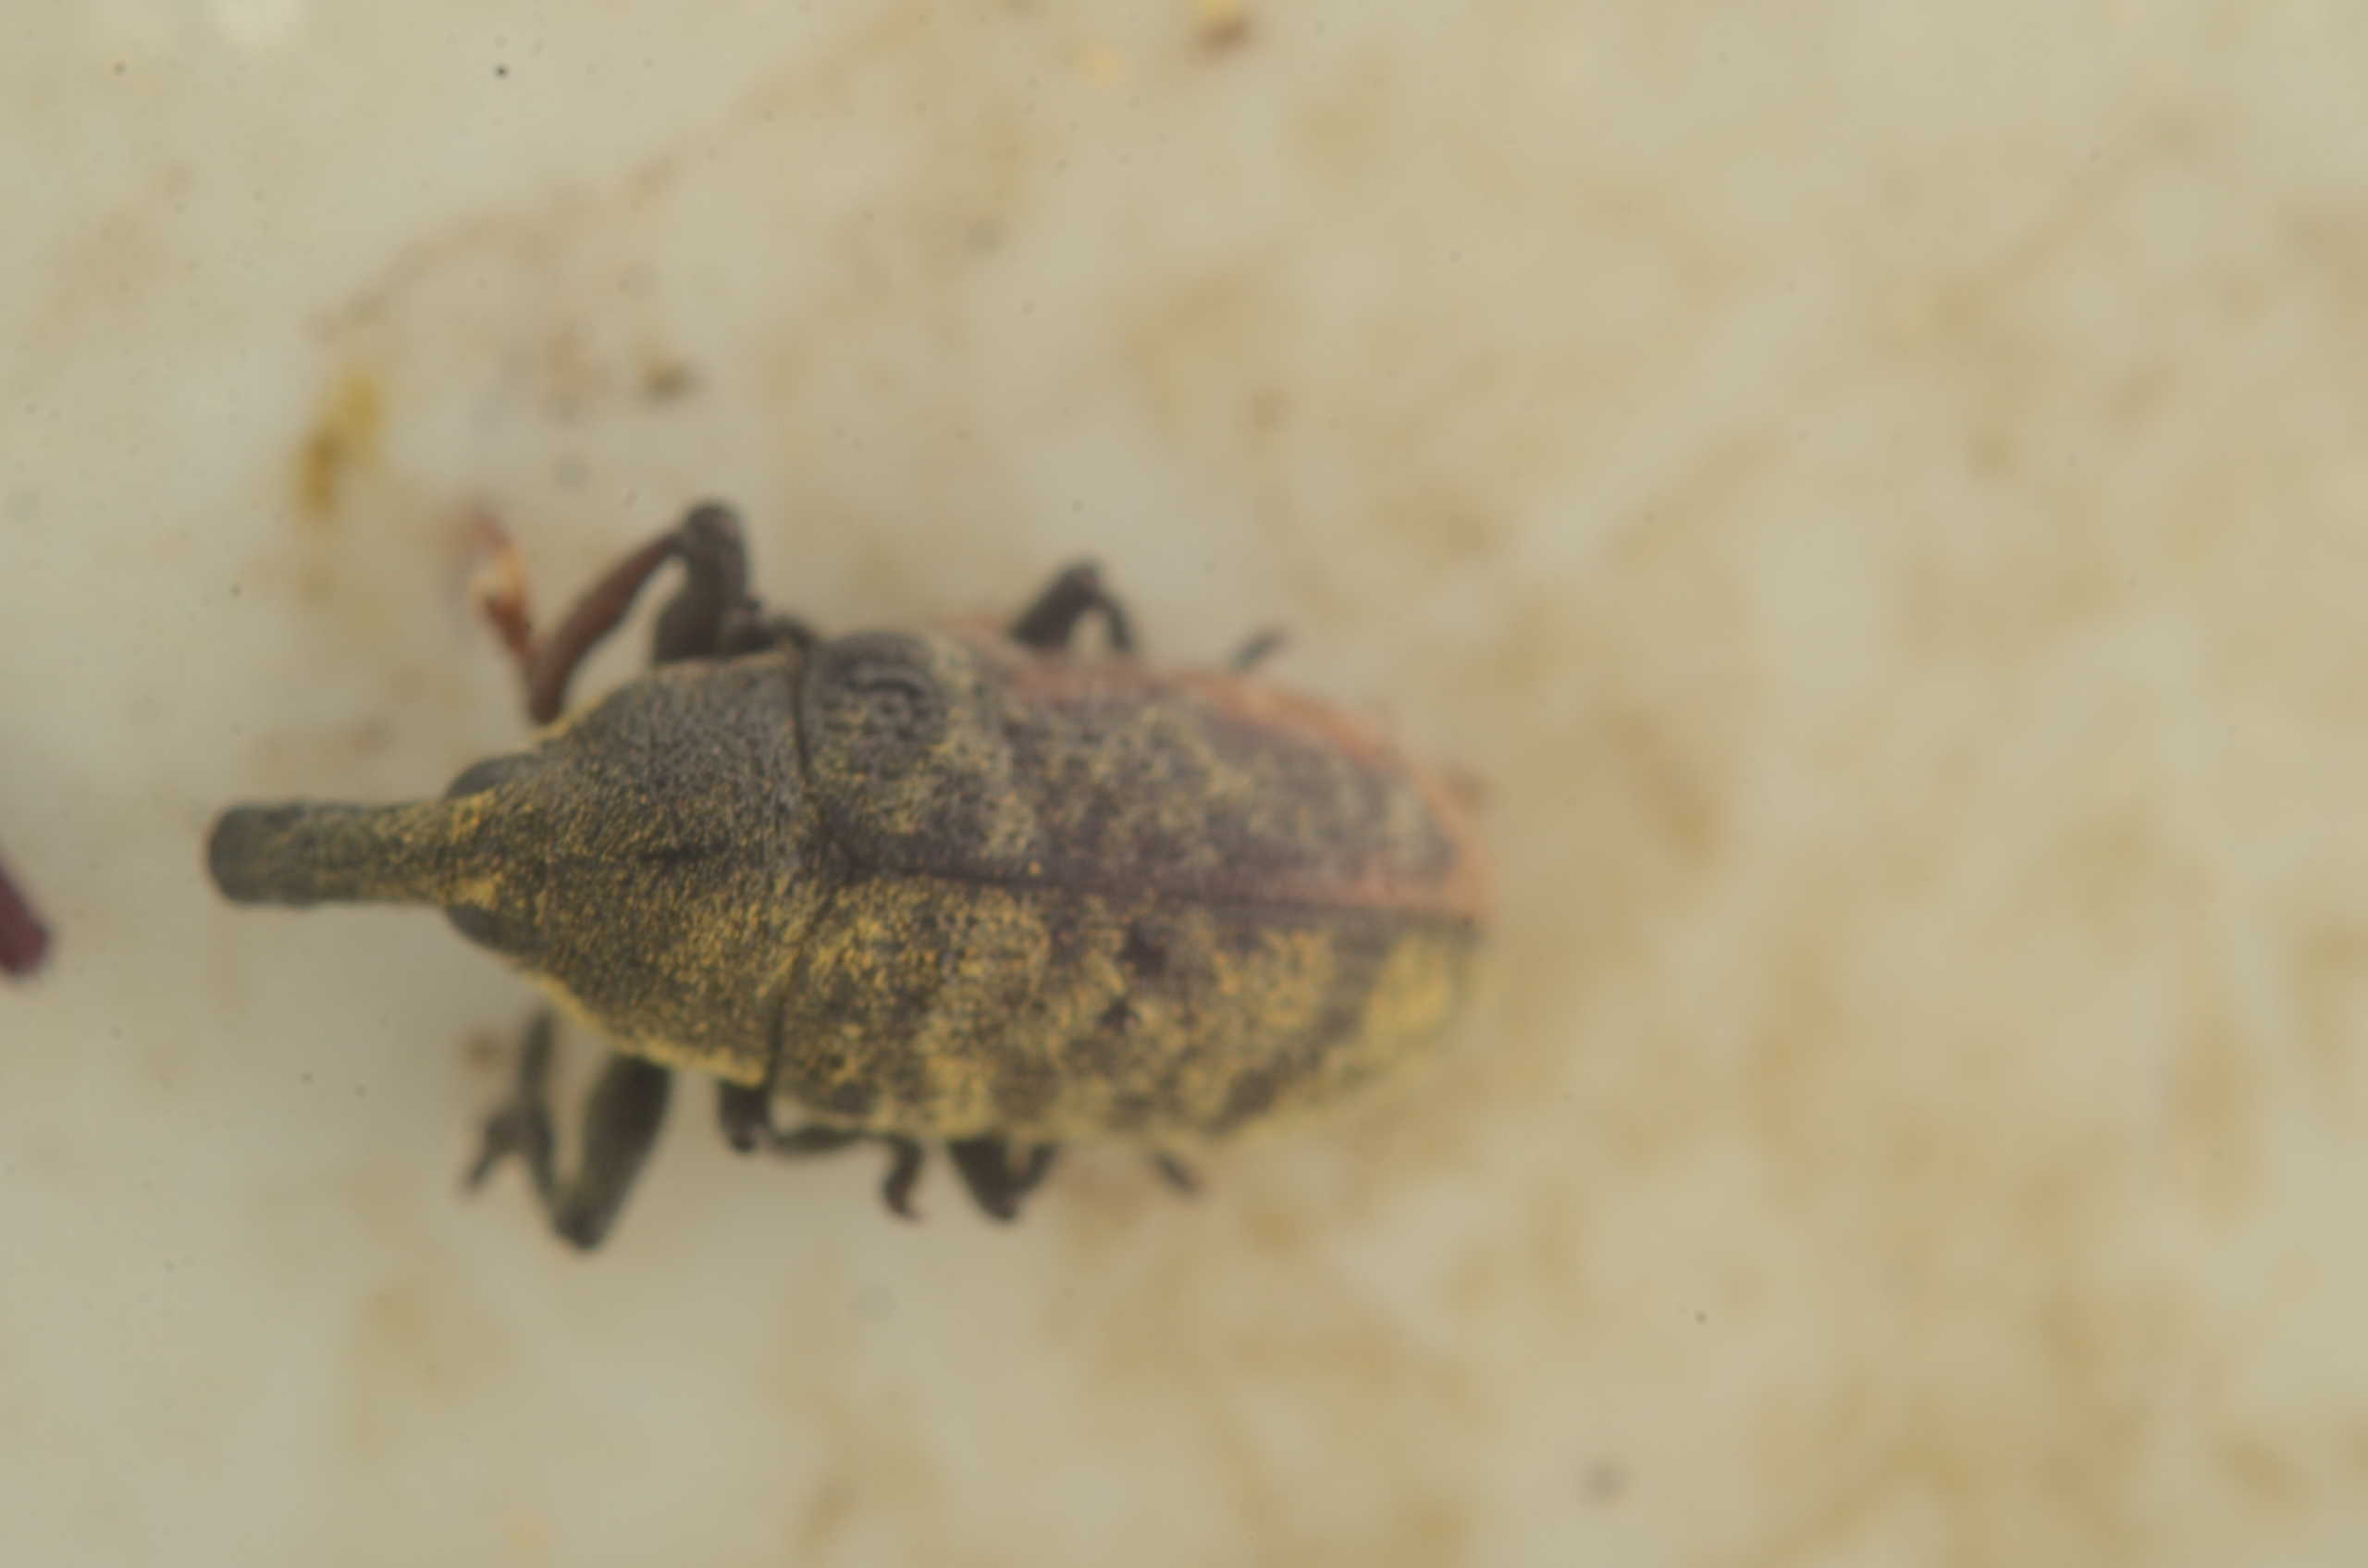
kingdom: Animalia
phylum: Arthropoda
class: Insecta
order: Coleoptera
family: Curculionidae
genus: Larinus
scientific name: Larinus carlinae
